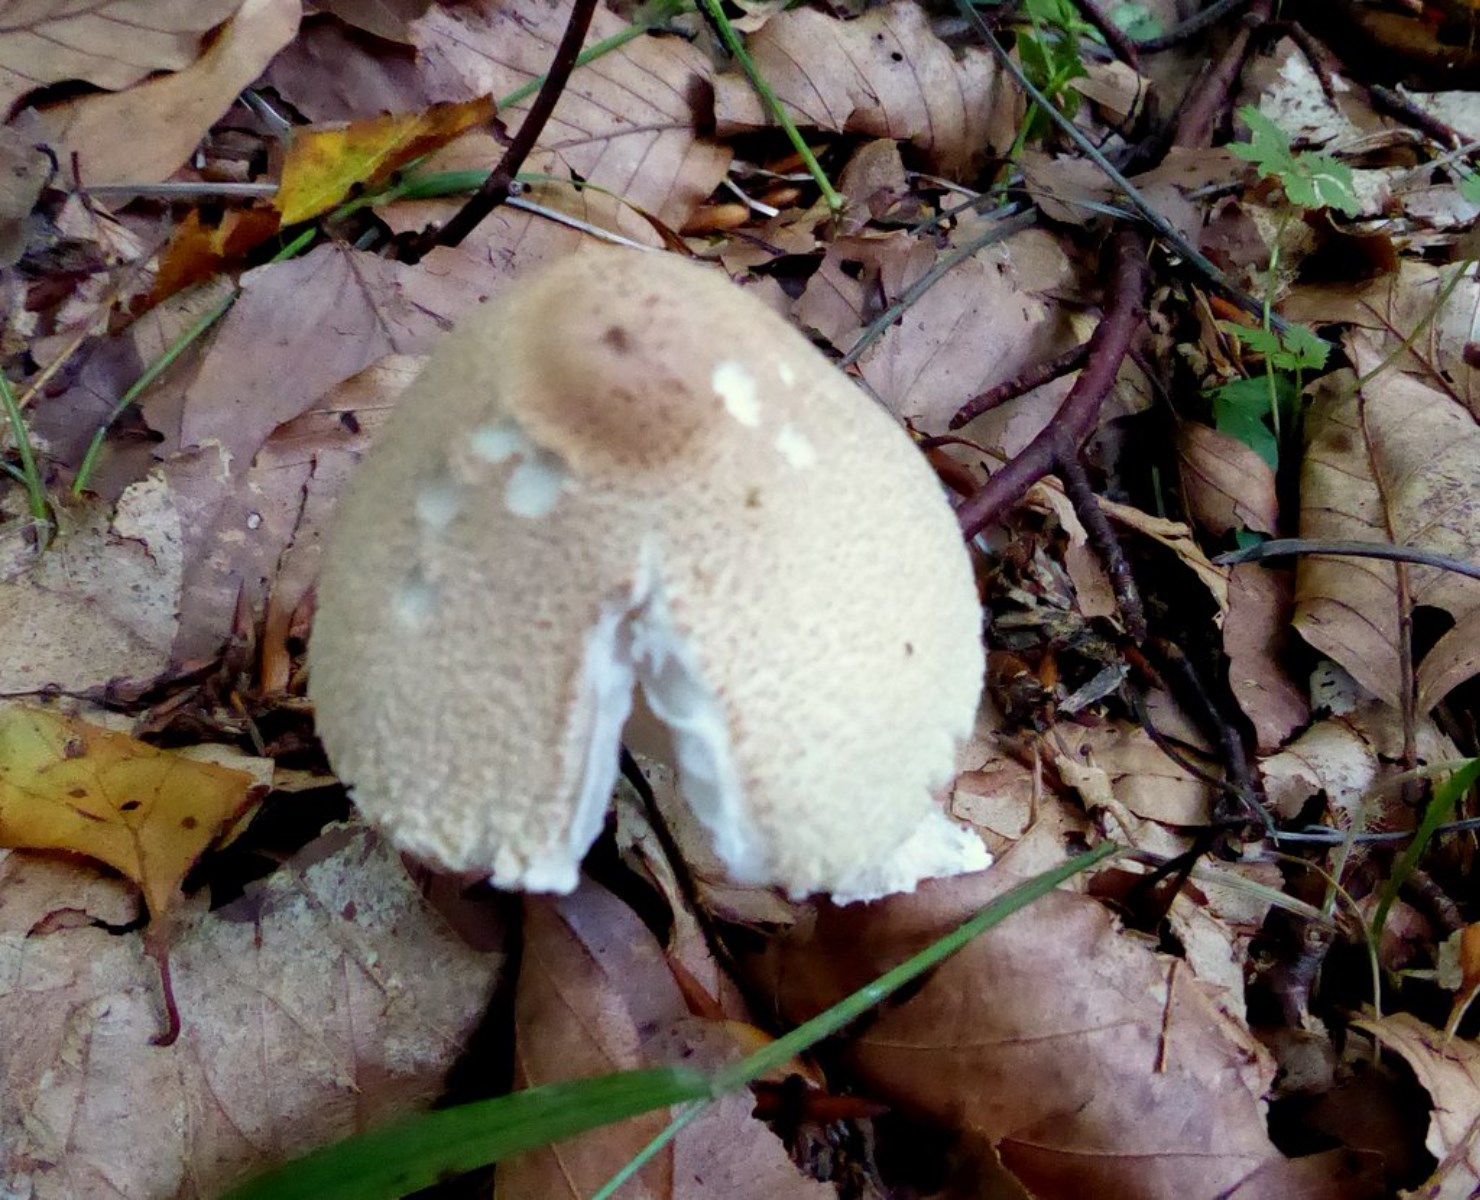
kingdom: Fungi
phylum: Basidiomycota
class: Agaricomycetes
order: Agaricales
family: Agaricaceae
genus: Lepiota
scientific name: Lepiota clypeolaria
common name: flosset parasolhat
